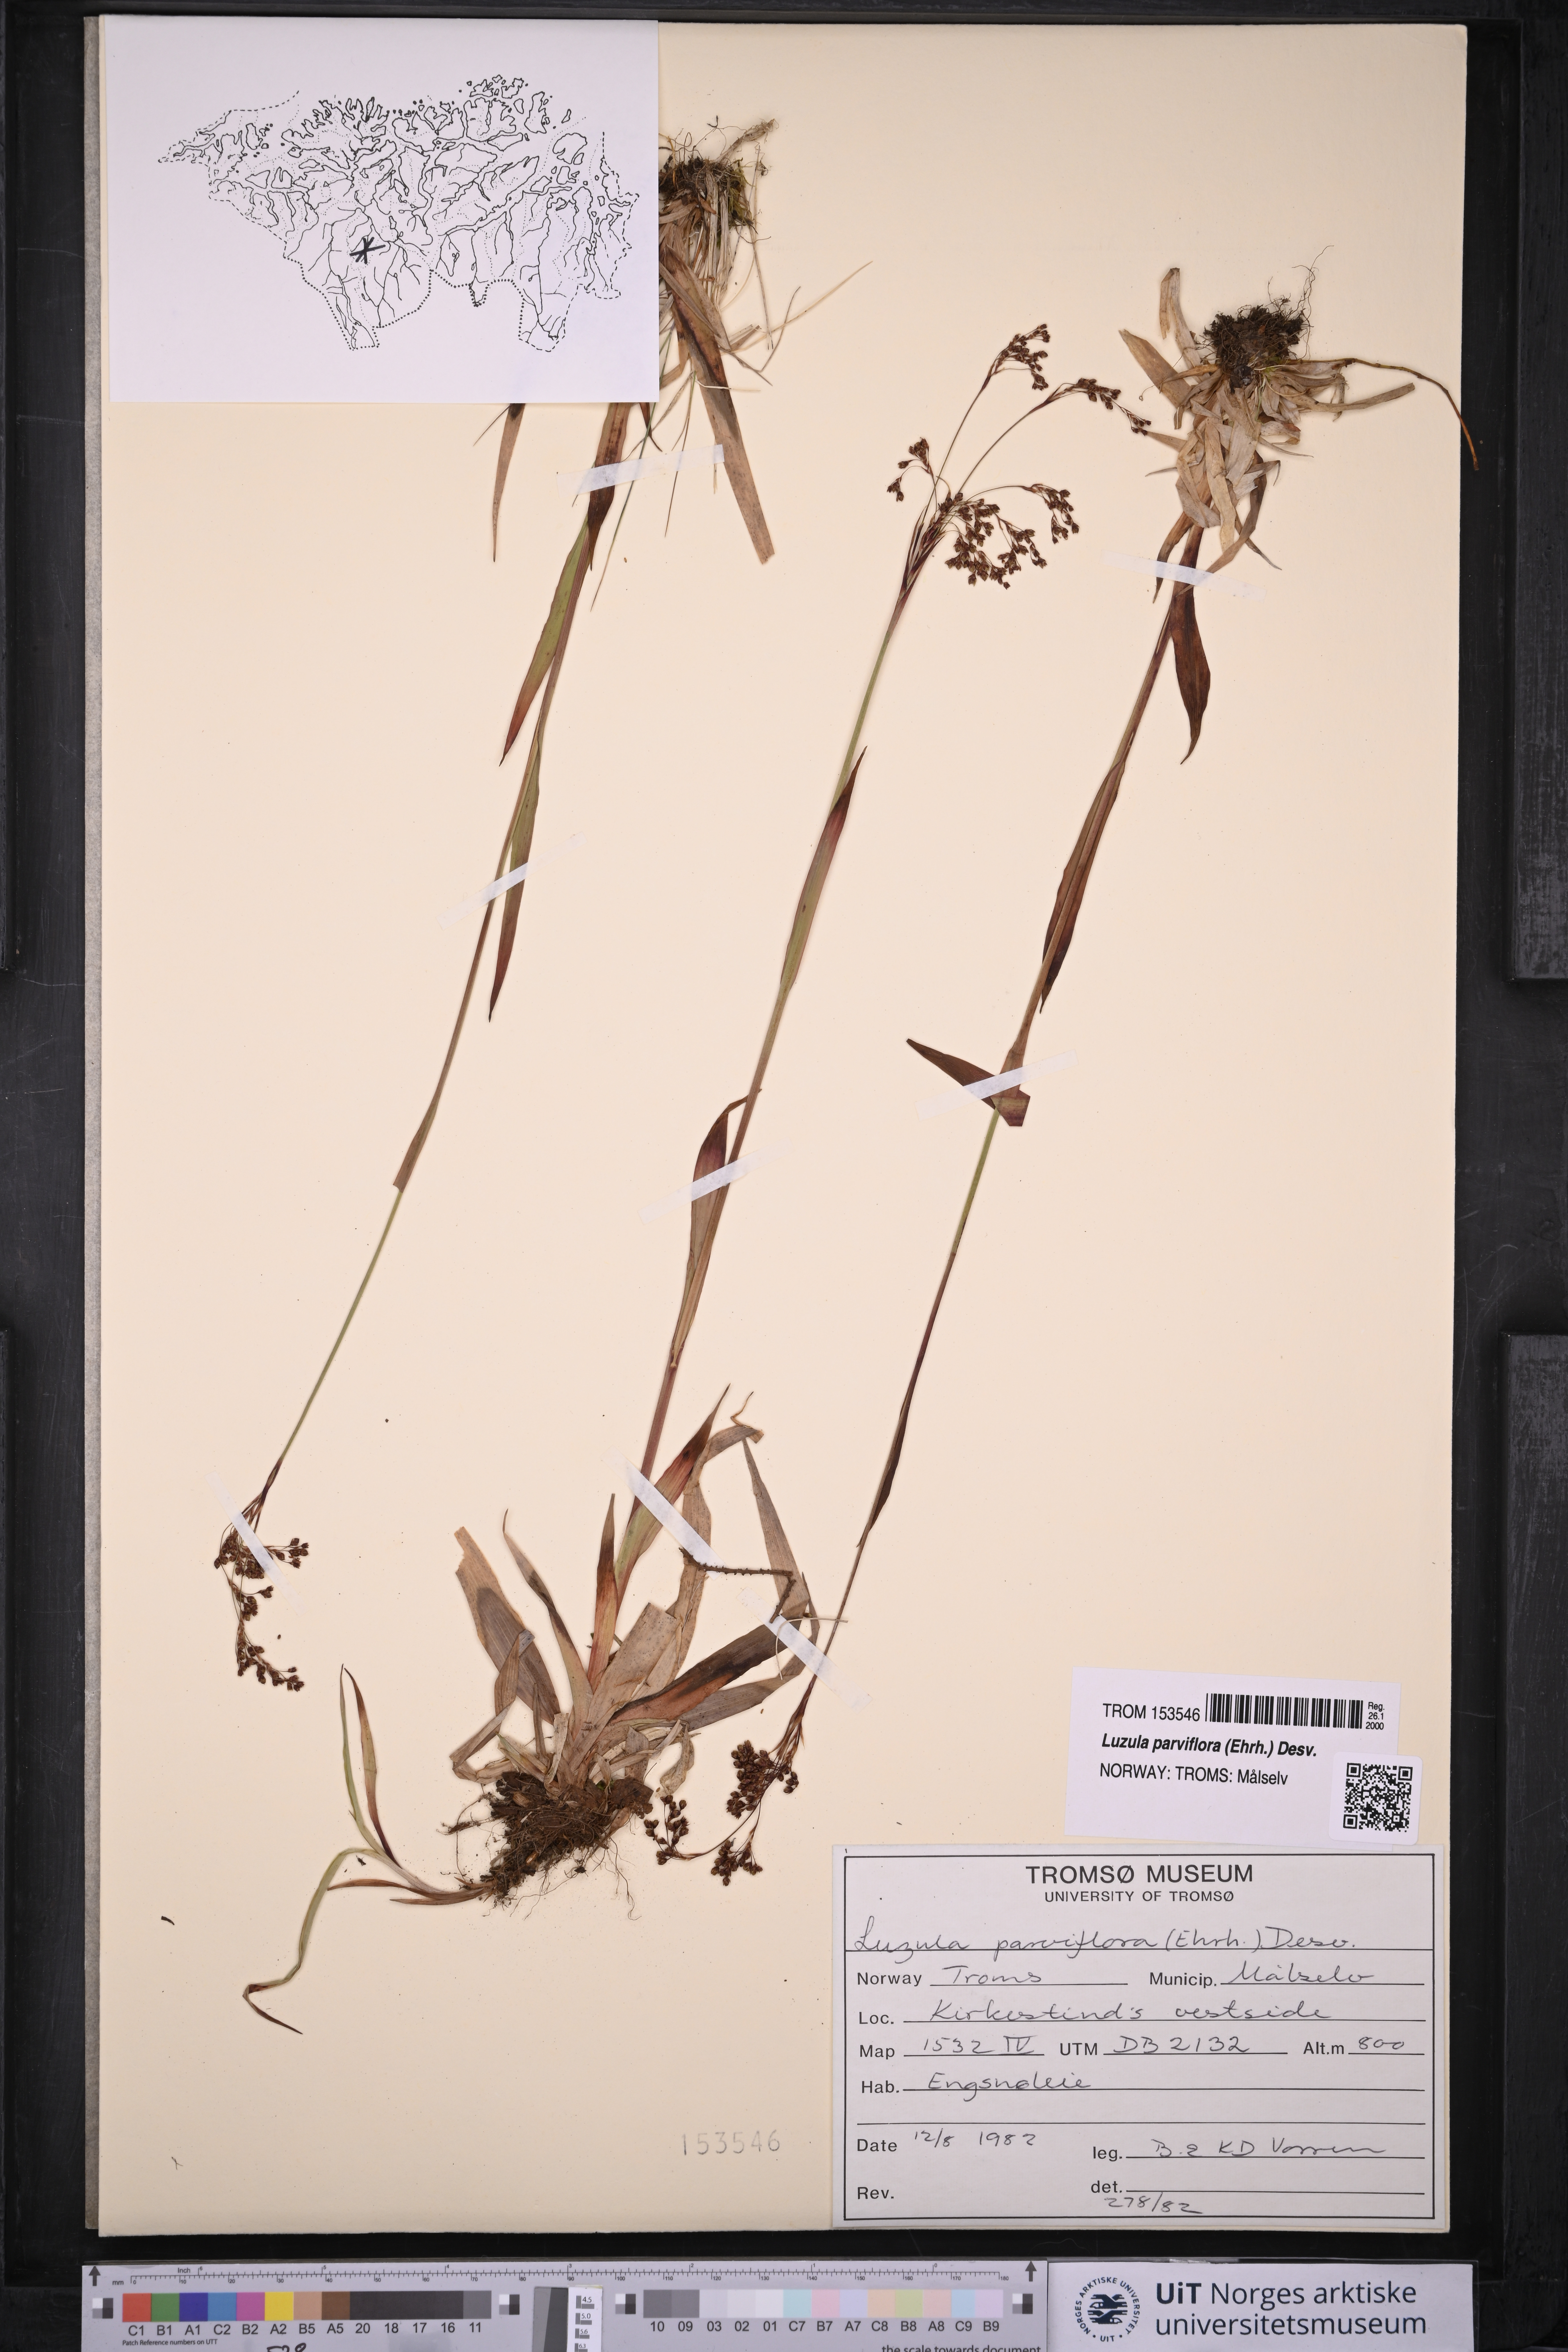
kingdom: Plantae
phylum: Tracheophyta
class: Liliopsida
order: Poales
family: Juncaceae
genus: Luzula
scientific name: Luzula parviflora
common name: Millet woodrush
